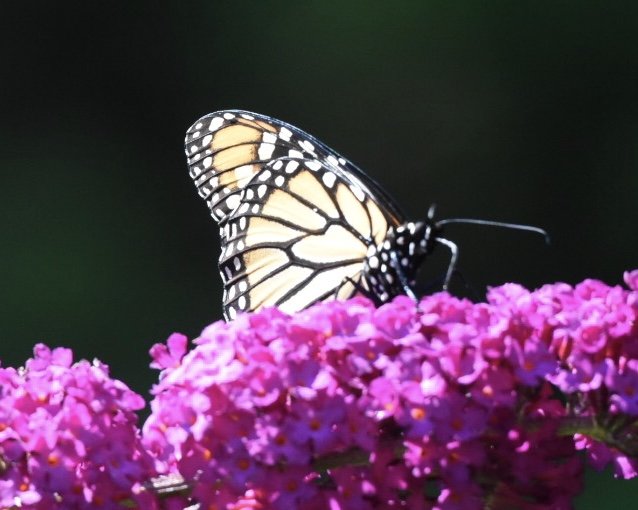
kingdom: Animalia
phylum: Arthropoda
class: Insecta
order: Lepidoptera
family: Nymphalidae
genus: Danaus
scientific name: Danaus plexippus
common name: Monarch
